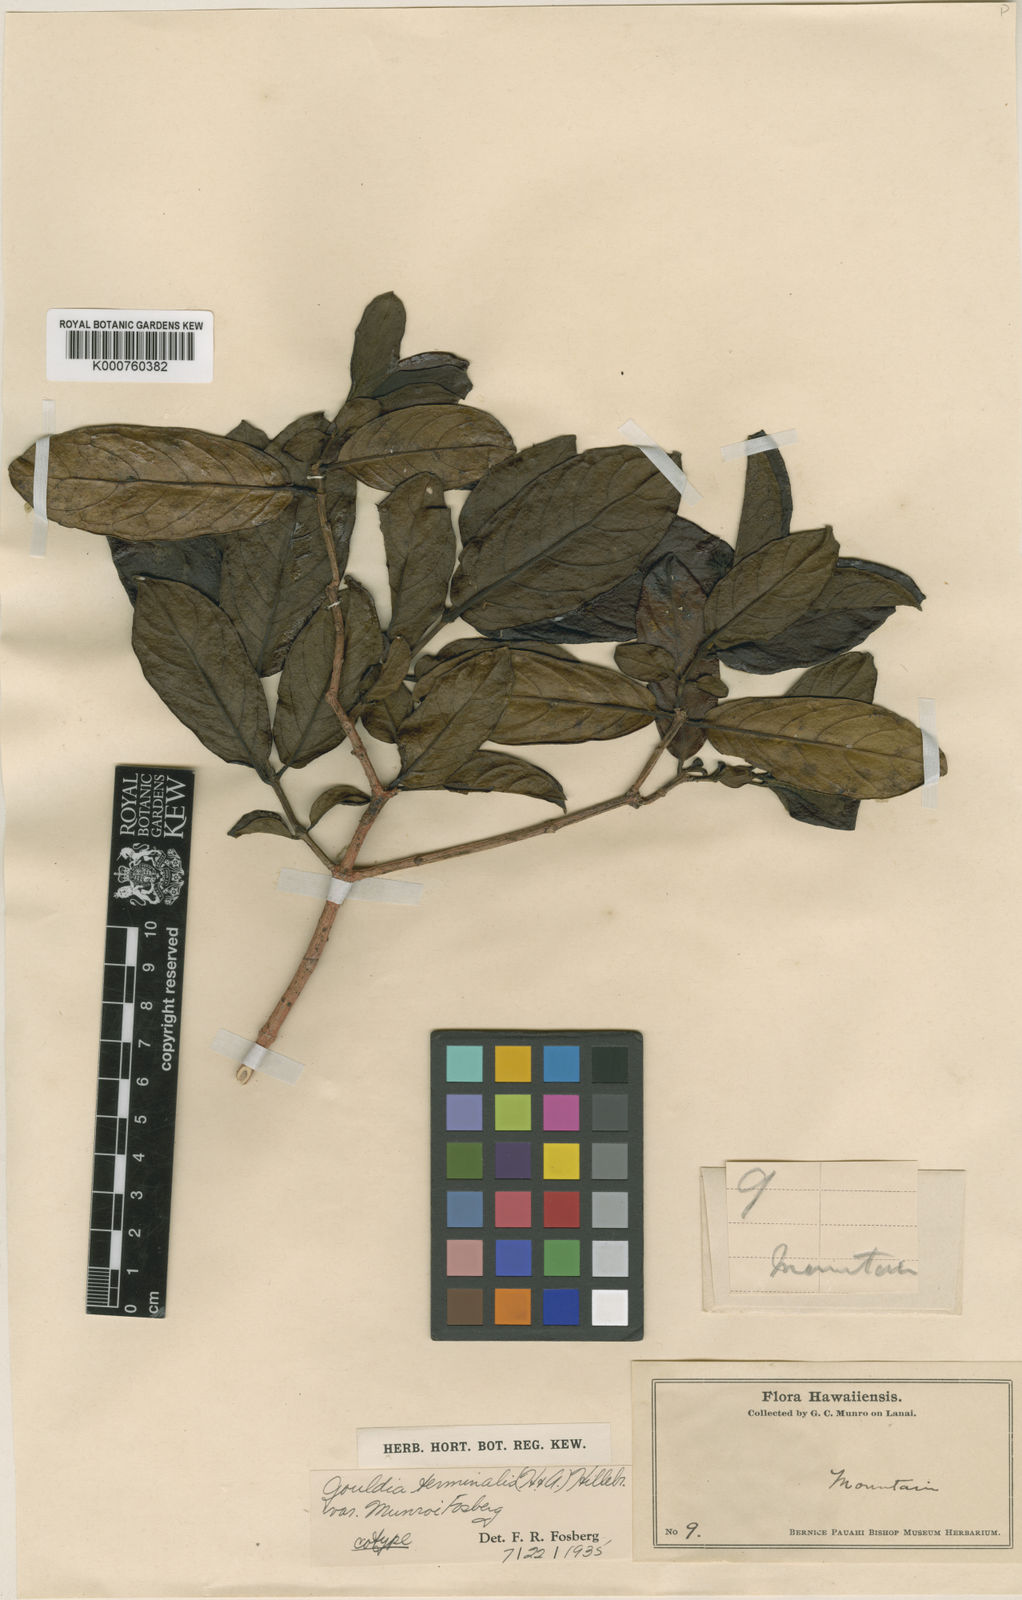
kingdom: Plantae
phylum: Tracheophyta
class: Magnoliopsida
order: Gentianales
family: Rubiaceae
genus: Kadua
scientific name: Kadua affinis
